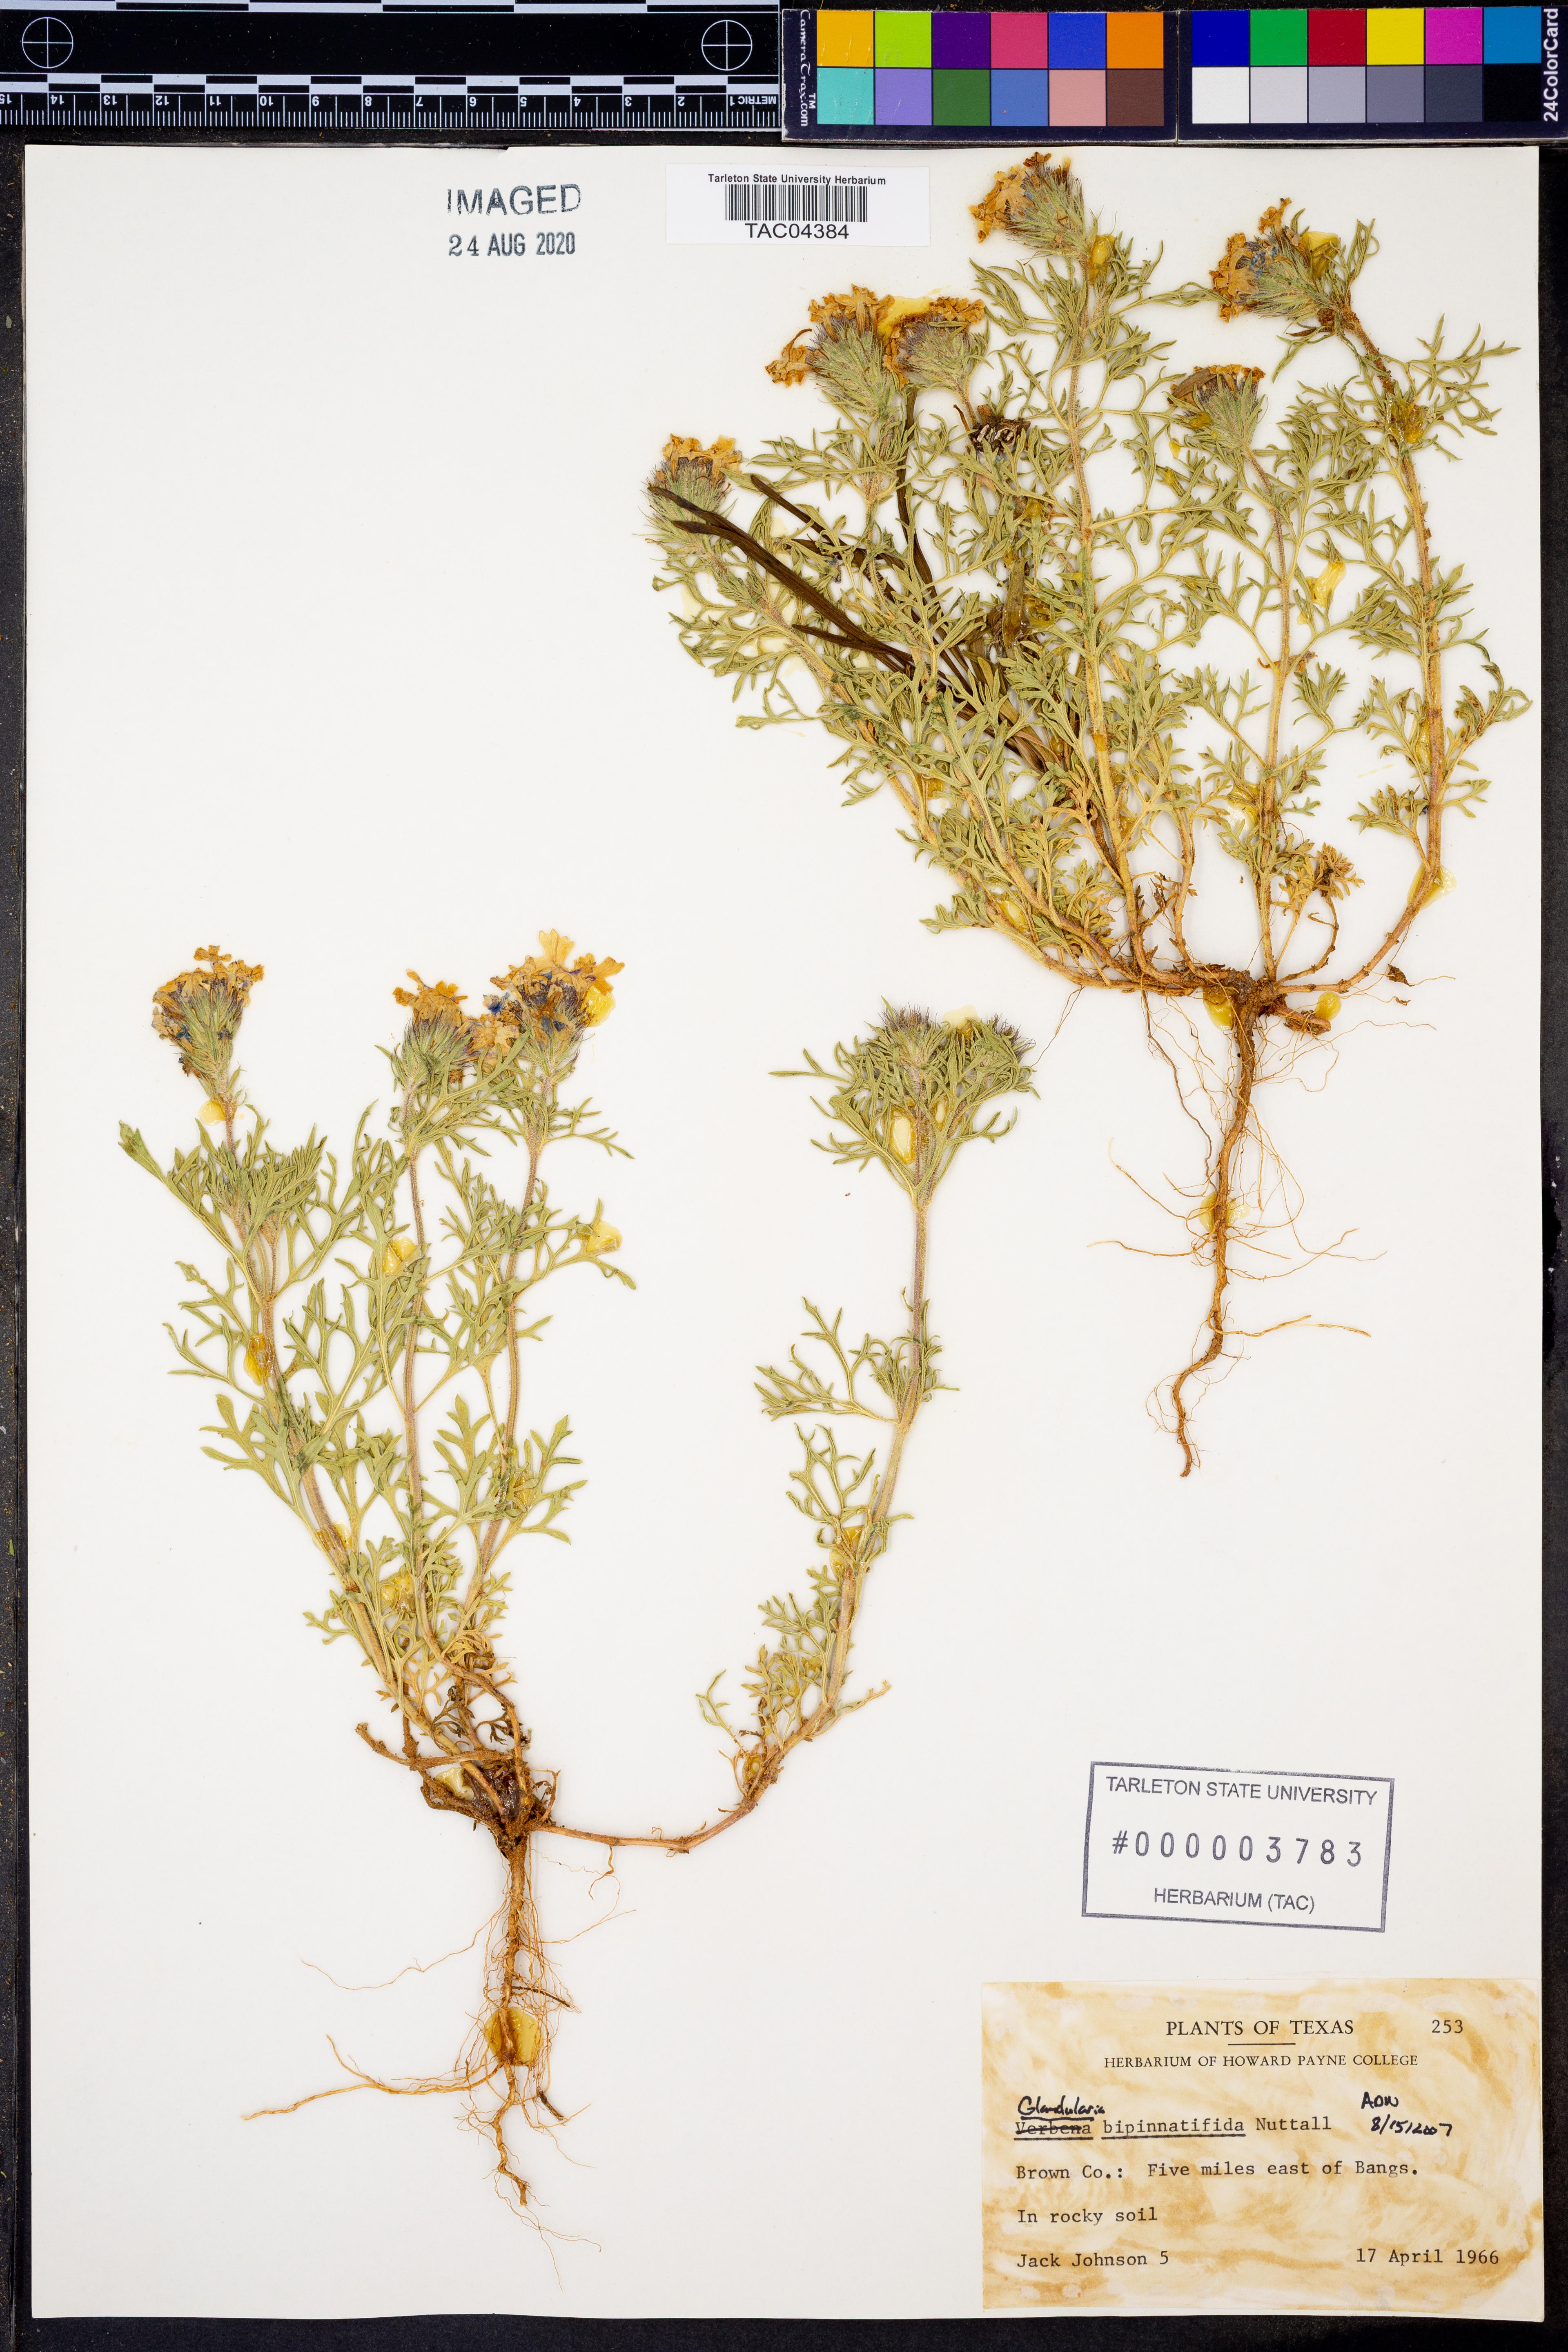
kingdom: Plantae
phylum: Tracheophyta
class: Magnoliopsida
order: Lamiales
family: Verbenaceae
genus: Verbena
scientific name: Verbena bipinnatifida
